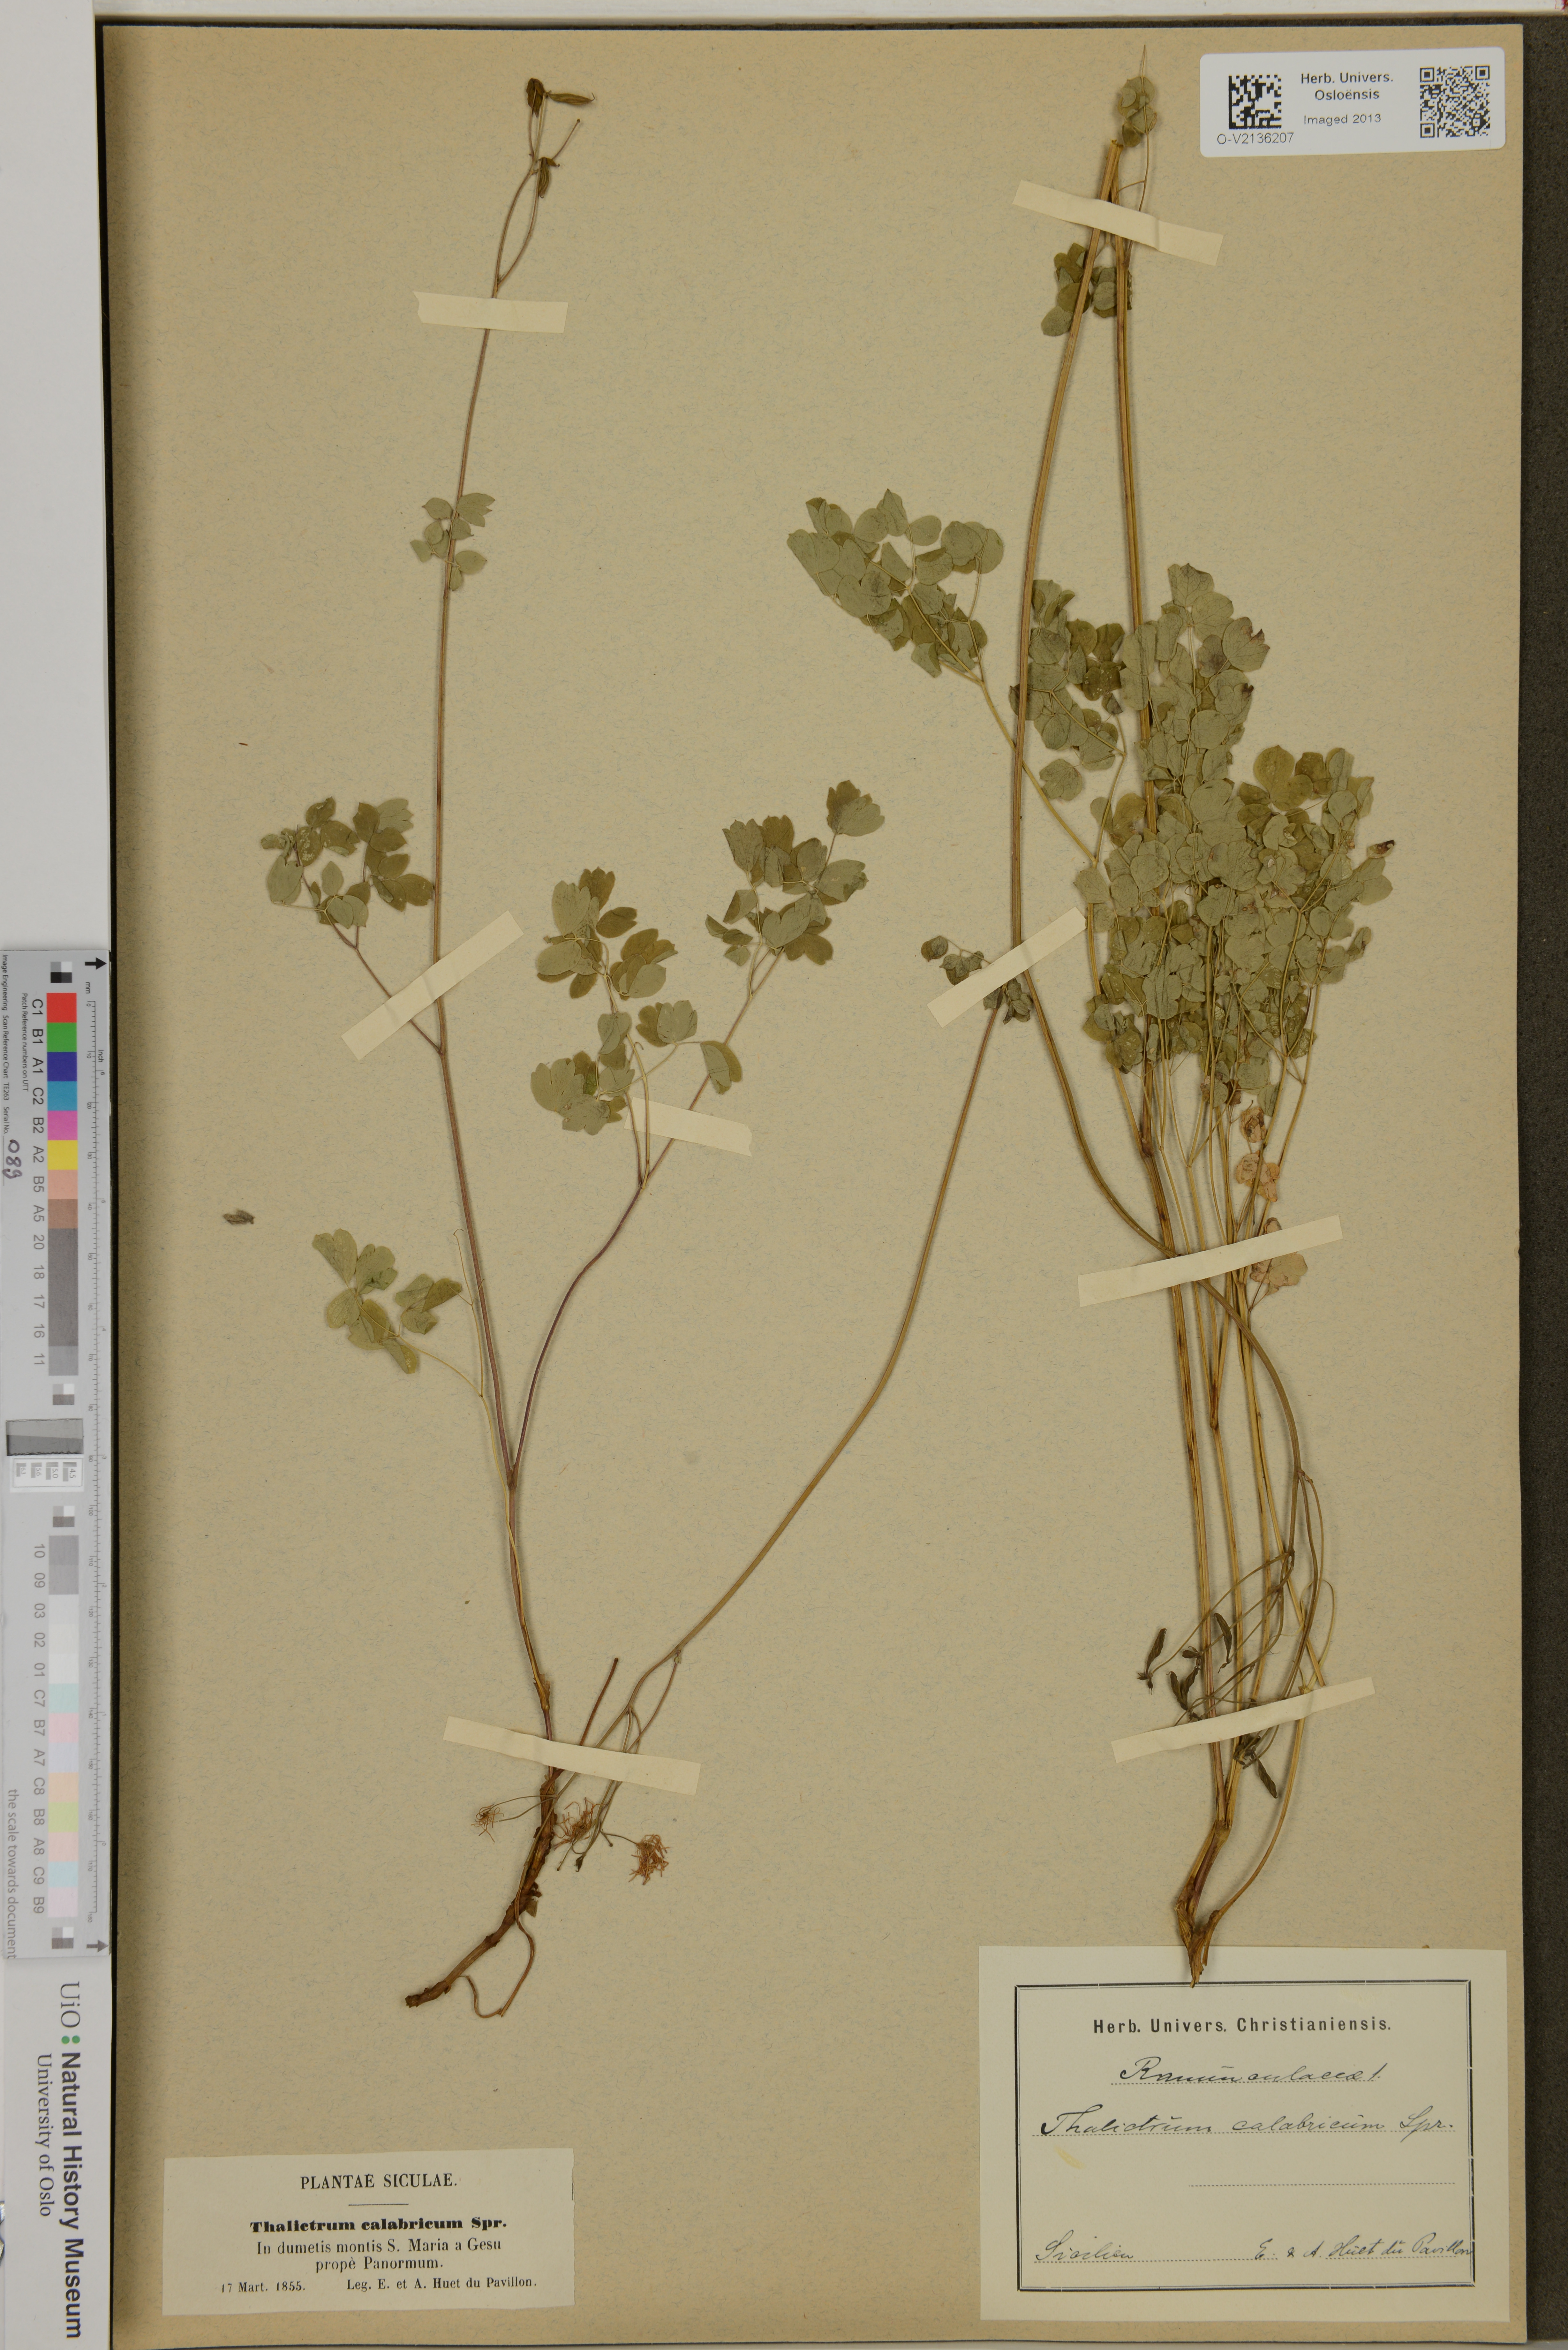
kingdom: Plantae
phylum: Tracheophyta
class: Magnoliopsida
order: Ranunculales
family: Ranunculaceae
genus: Thalictrum
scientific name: Thalictrum calabricum
